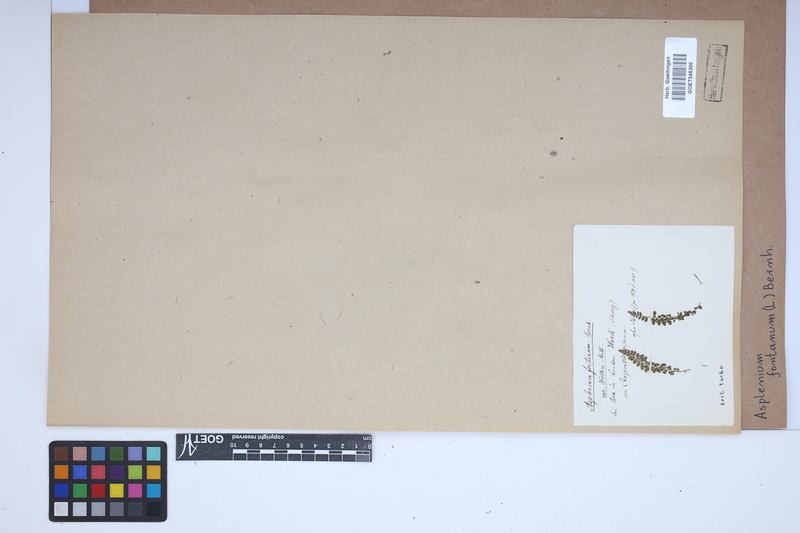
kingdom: Plantae
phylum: Tracheophyta
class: Polypodiopsida
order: Polypodiales
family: Aspleniaceae
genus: Asplenium
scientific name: Asplenium fontanum
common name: Fountain spleenwort
